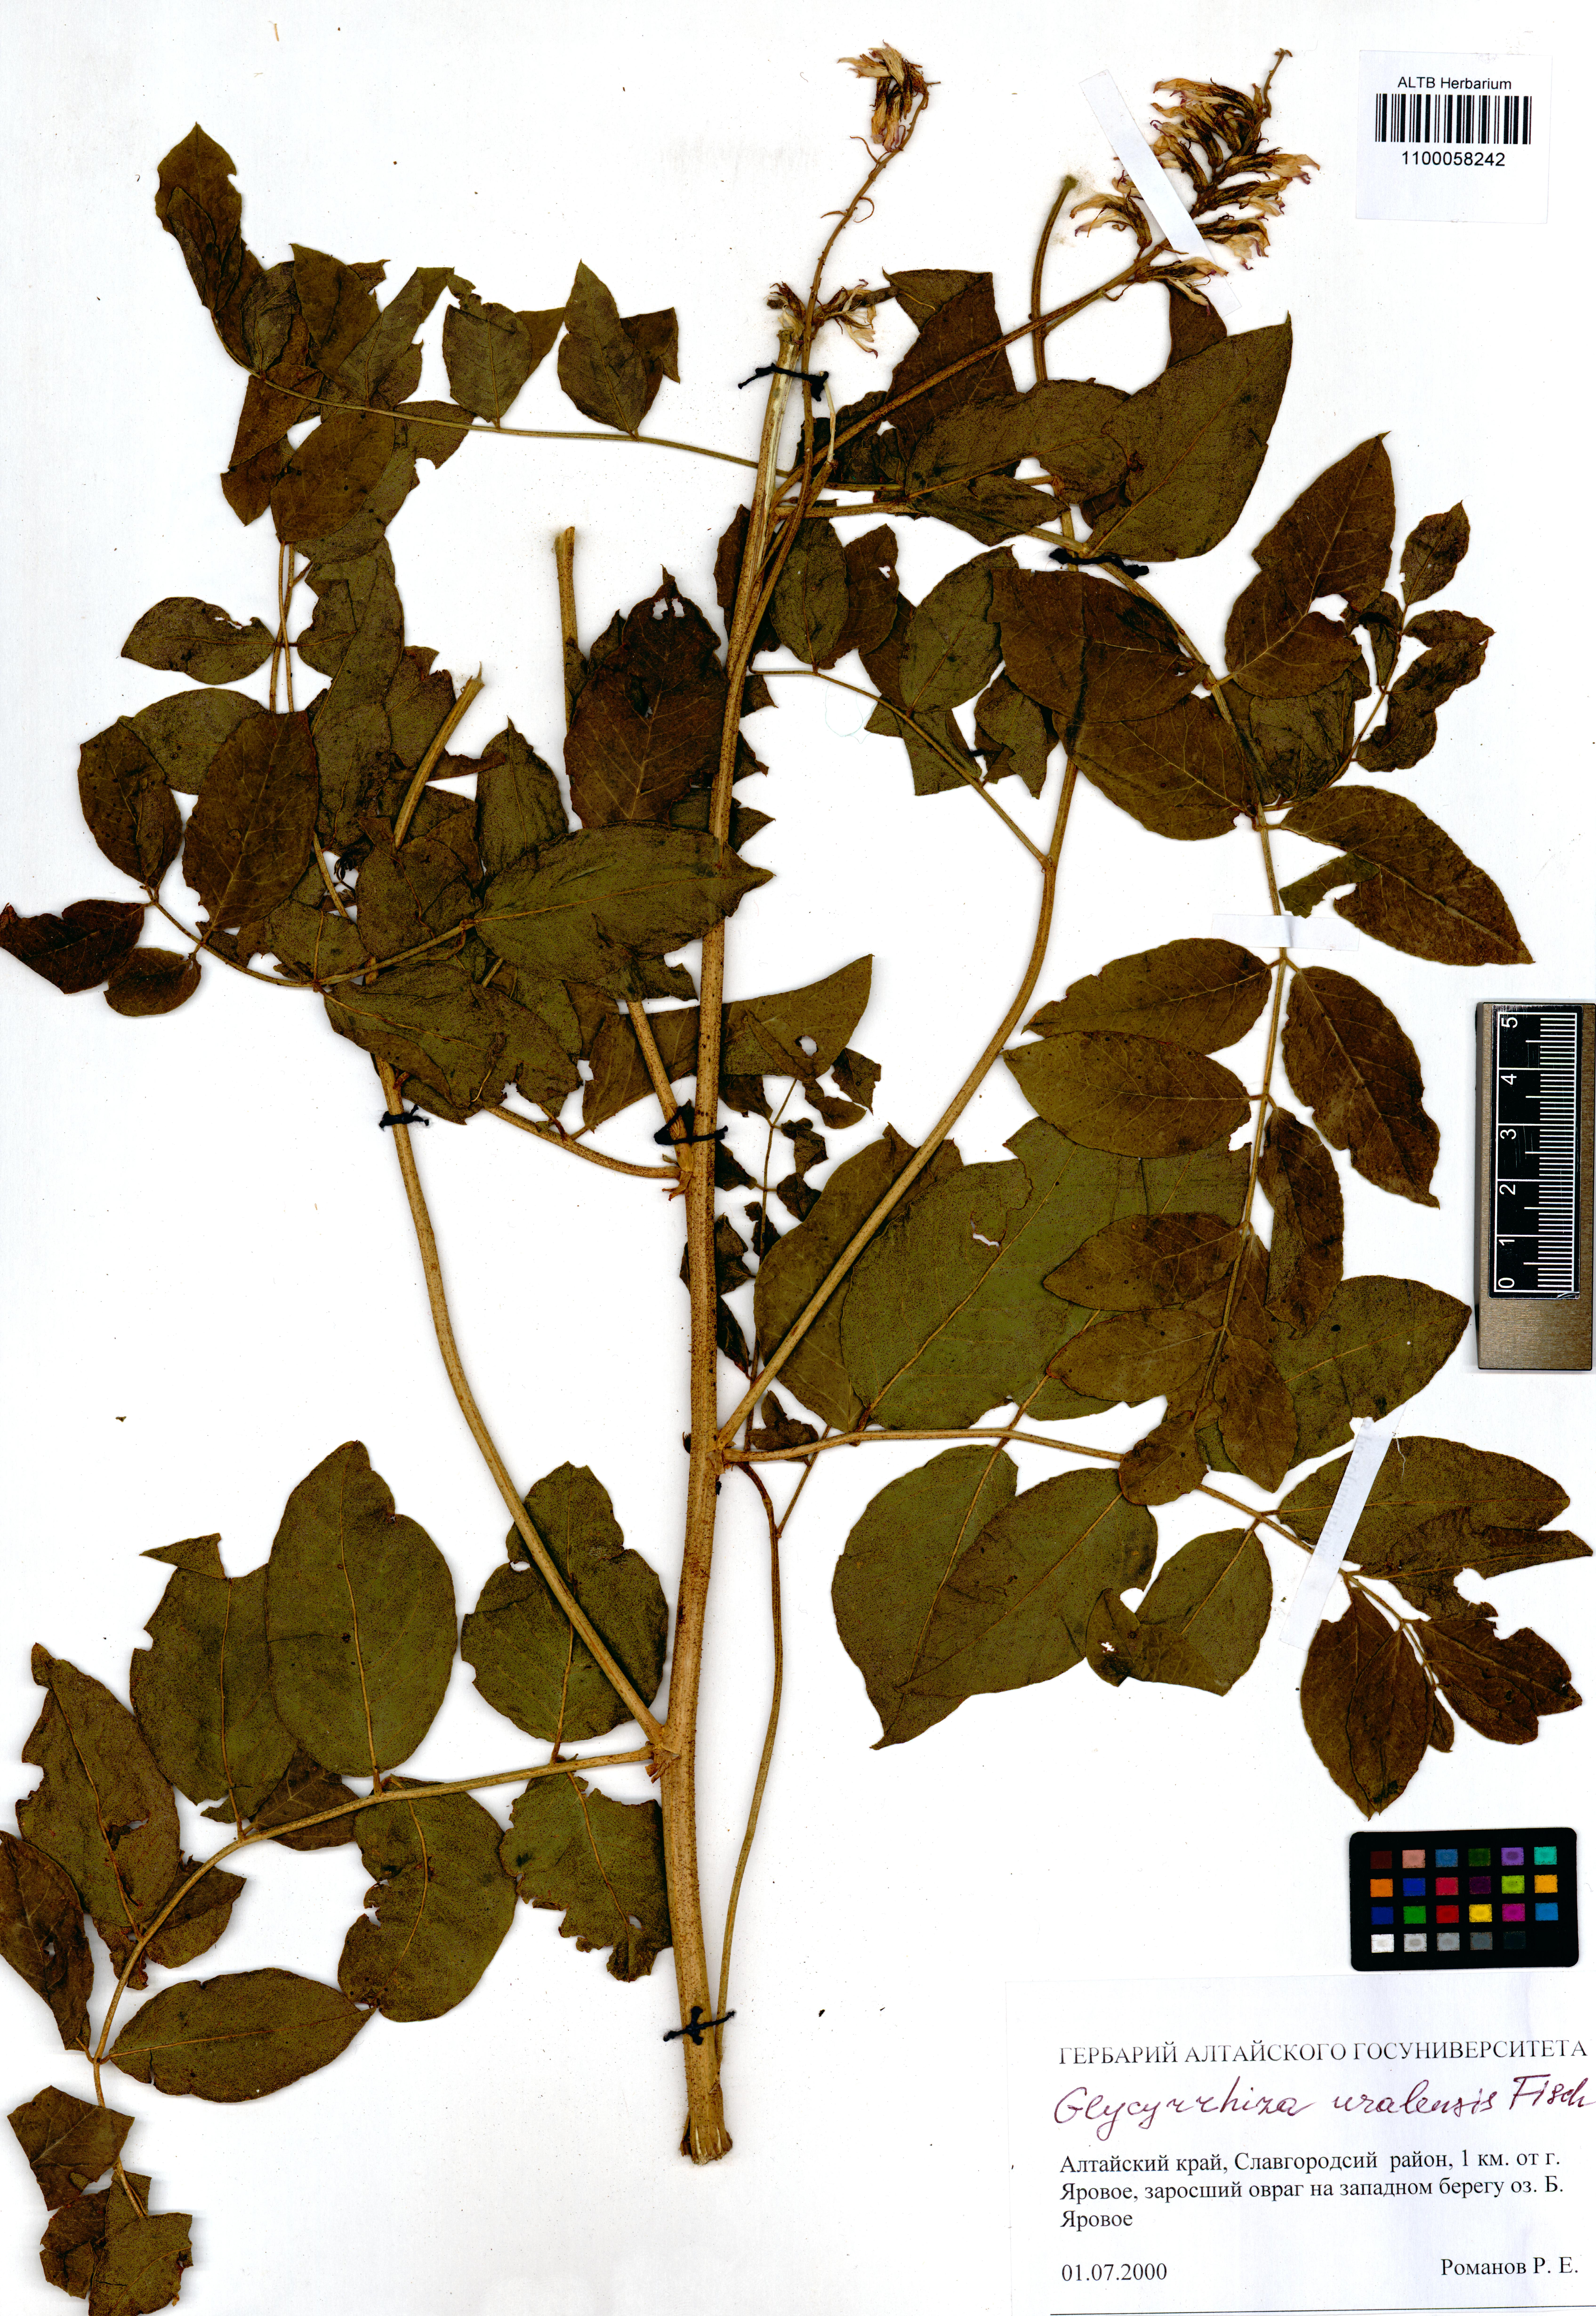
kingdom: Plantae
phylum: Tracheophyta
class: Magnoliopsida
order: Fabales
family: Fabaceae
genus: Glycyrrhiza
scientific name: Glycyrrhiza uralensis
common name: Chinese licorice
